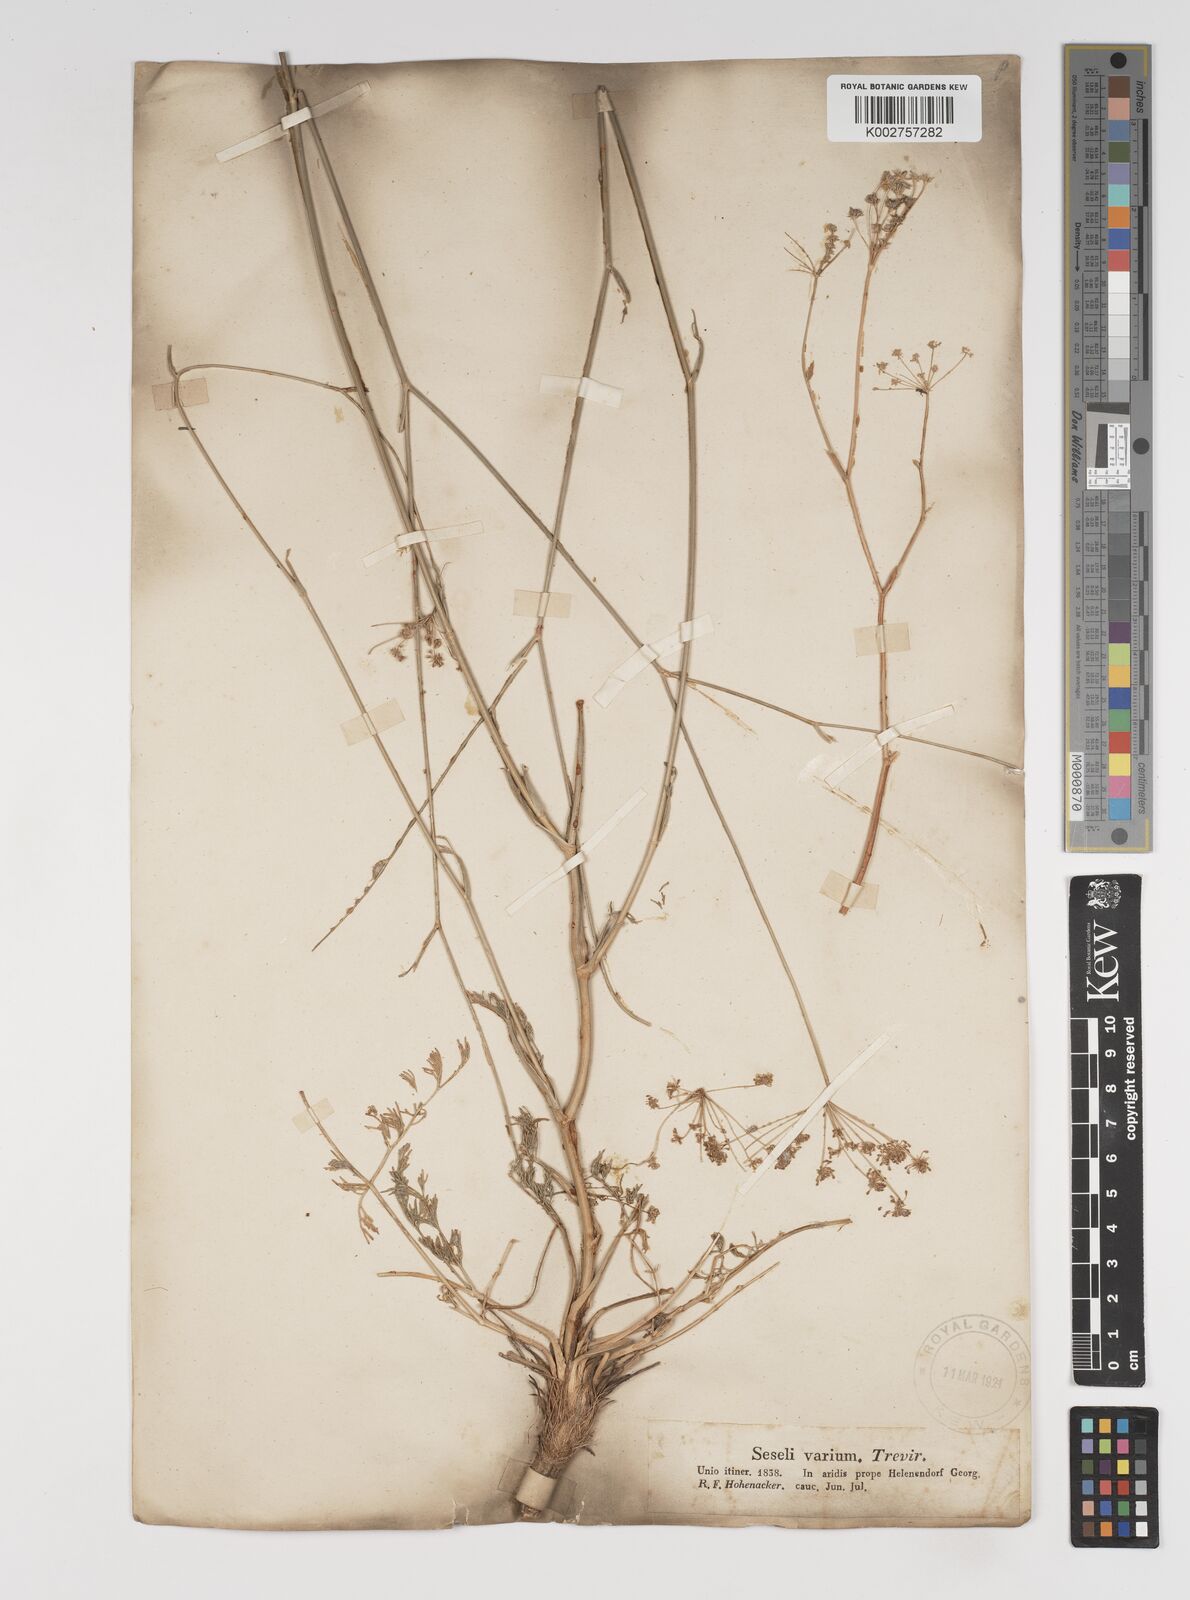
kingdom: Plantae
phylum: Tracheophyta
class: Magnoliopsida
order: Apiales
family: Apiaceae
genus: Seseli
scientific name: Seseli pallasii
